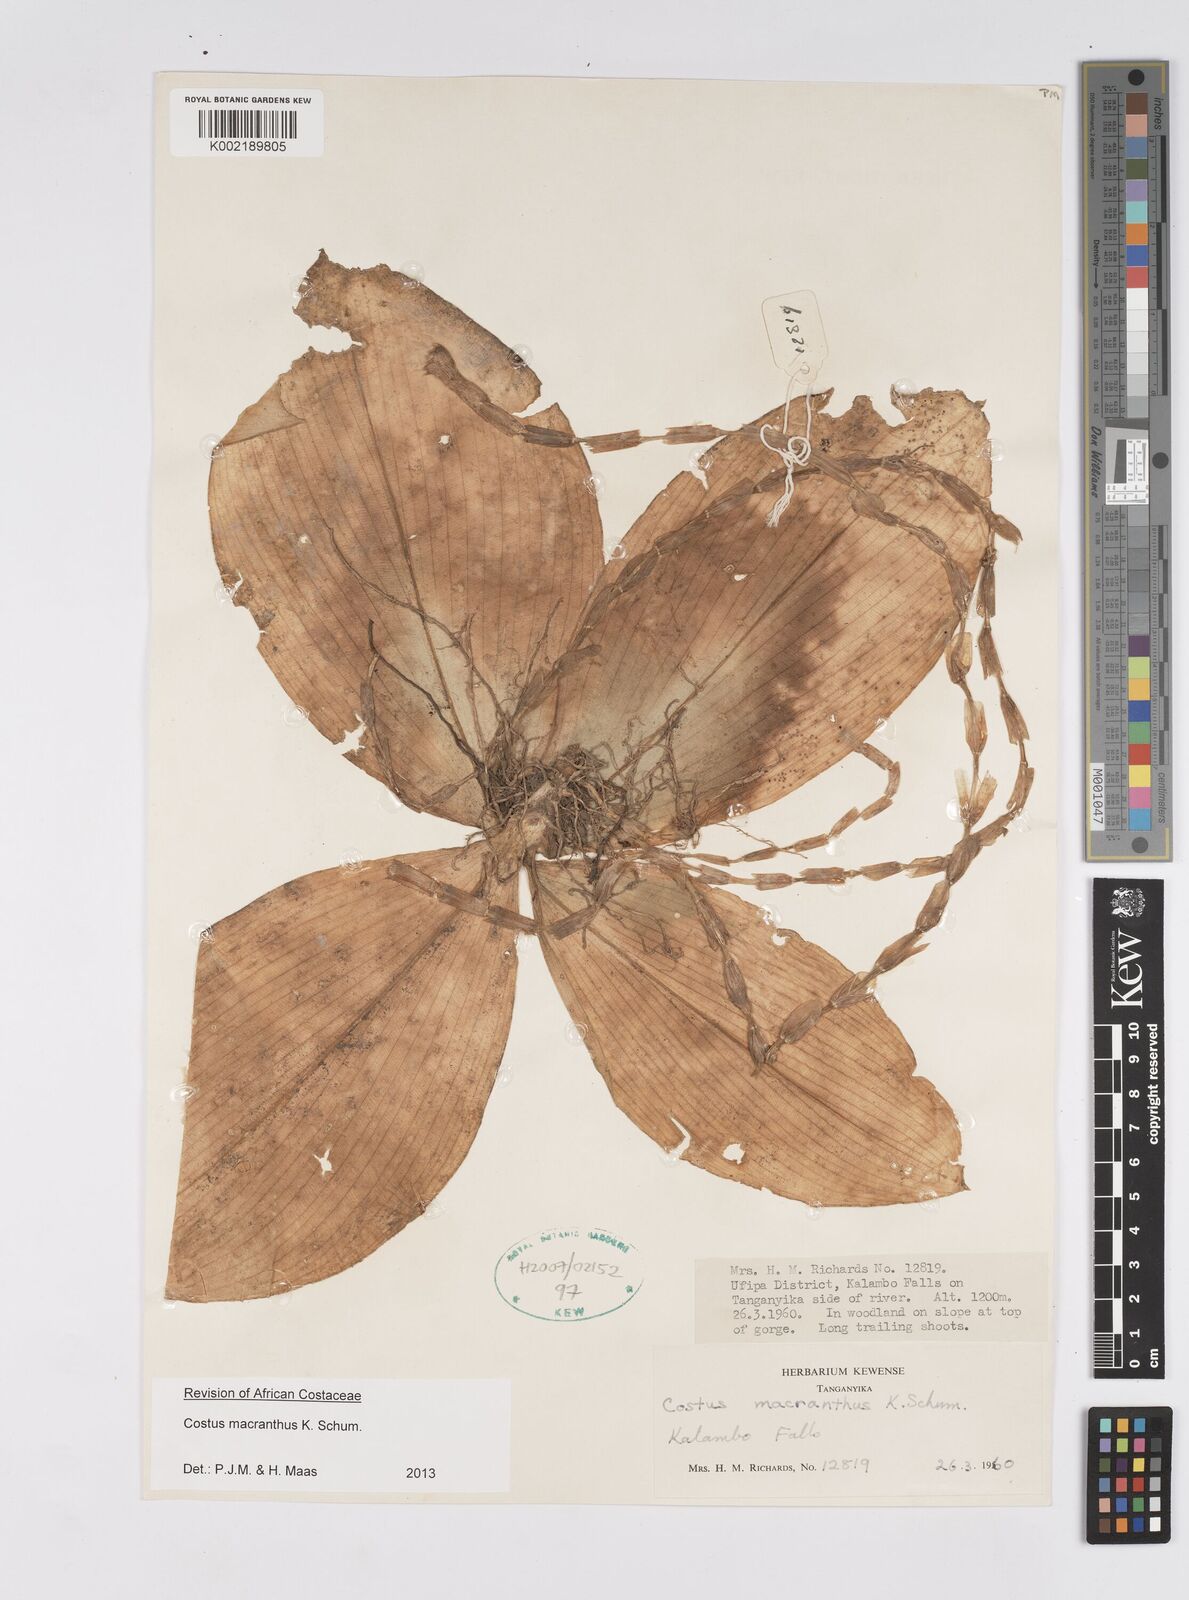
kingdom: Plantae
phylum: Tracheophyta
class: Liliopsida
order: Zingiberales
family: Costaceae
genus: Costus
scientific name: Costus macranthus
